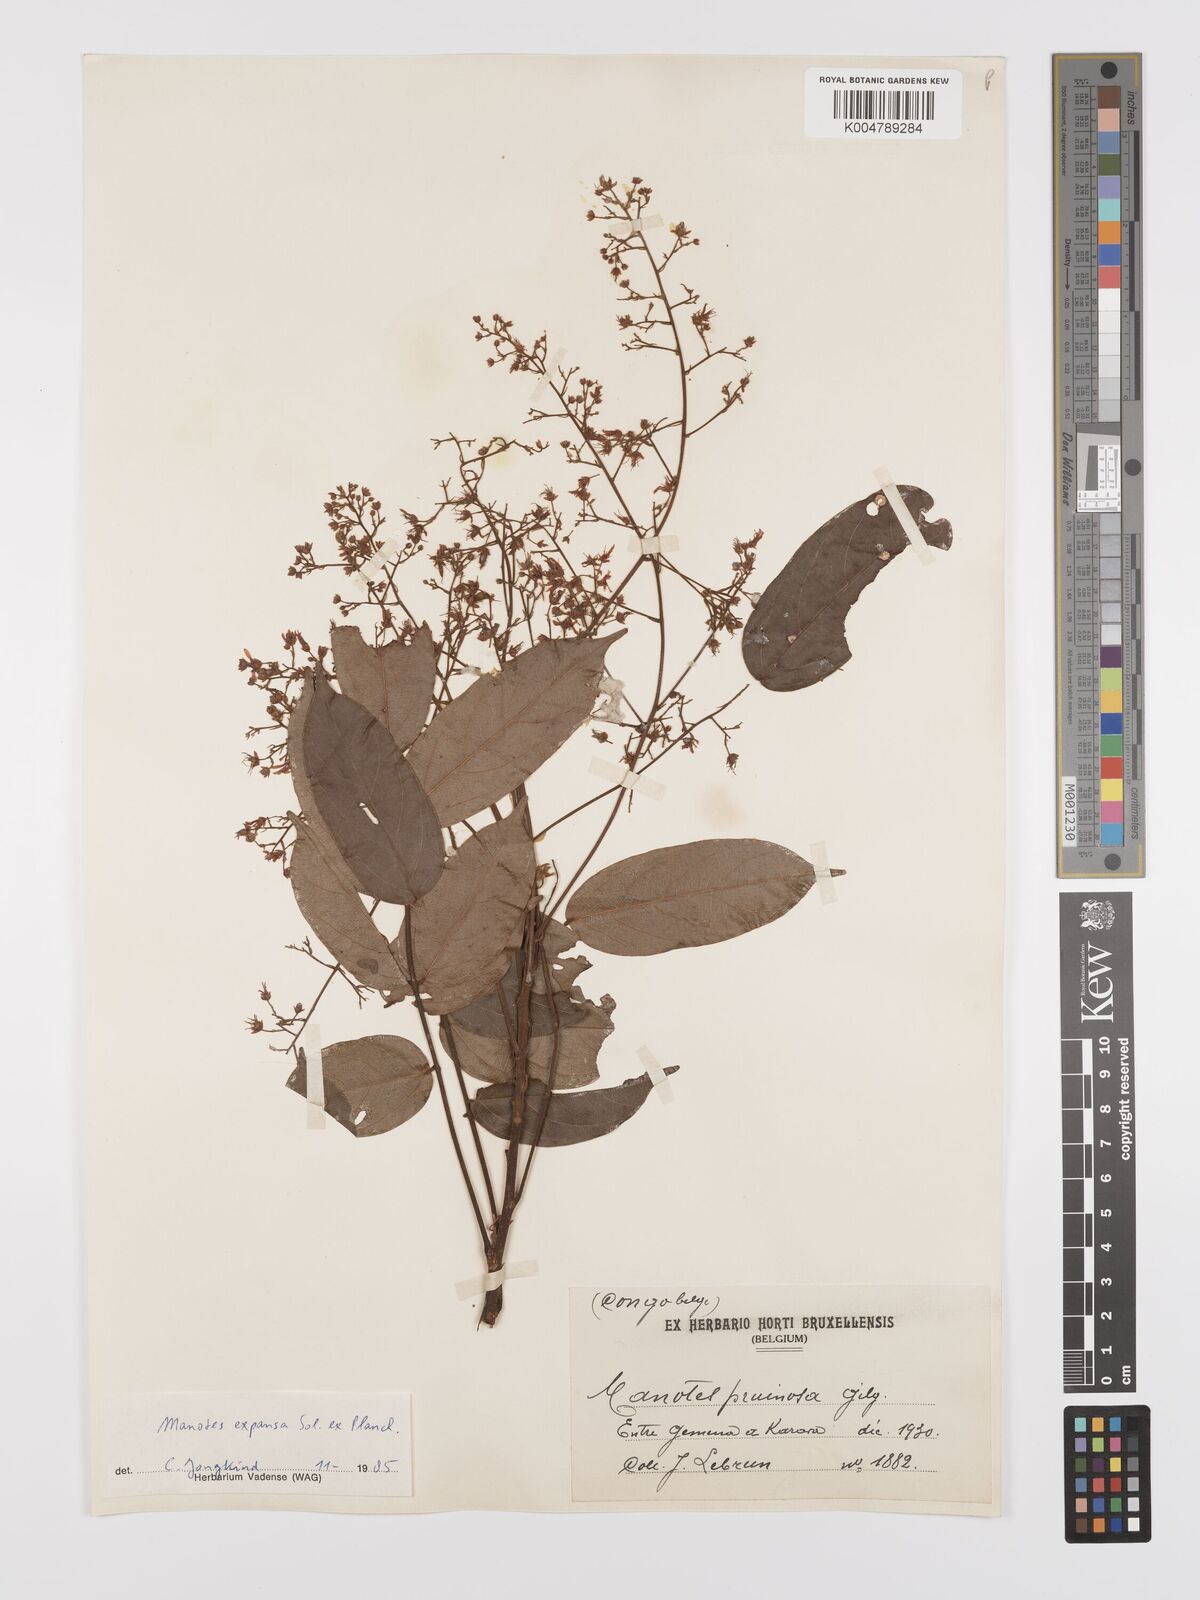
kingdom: Plantae
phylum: Tracheophyta
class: Magnoliopsida
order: Oxalidales
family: Connaraceae
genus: Manotes
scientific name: Manotes expansa
